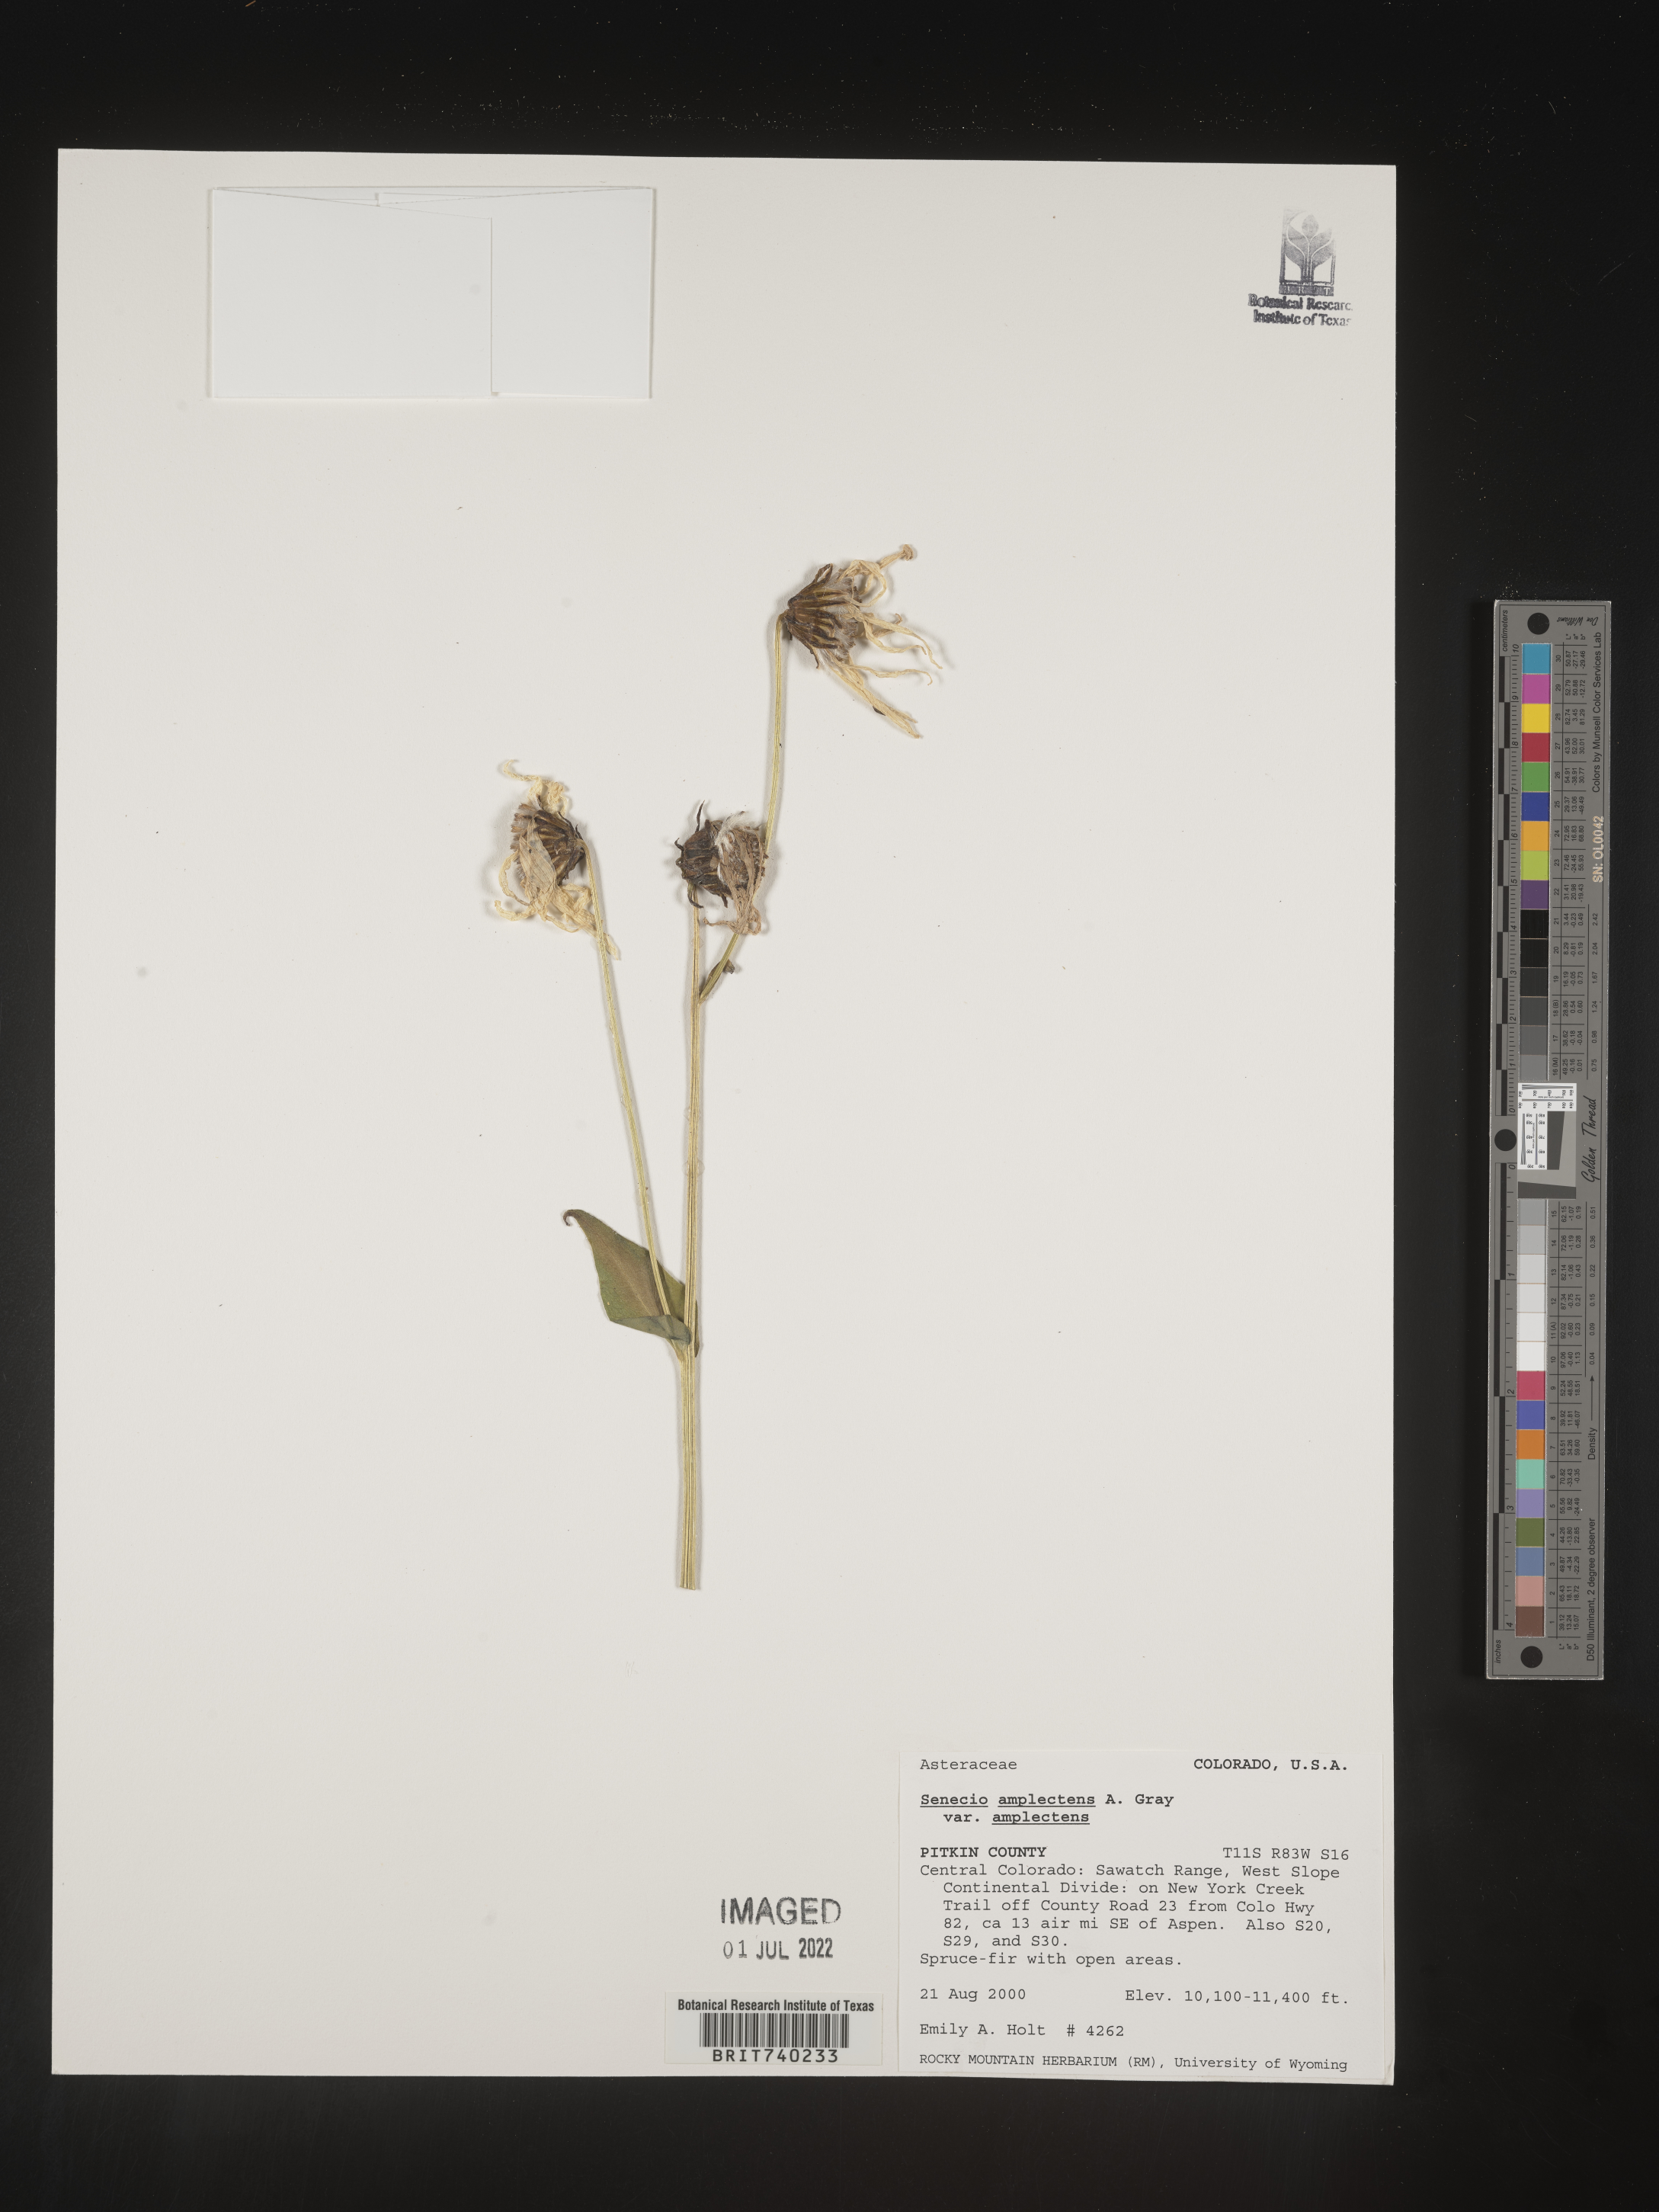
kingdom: Plantae
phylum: Tracheophyta
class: Magnoliopsida
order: Asterales
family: Asteraceae
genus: Senecio
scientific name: Senecio amplectens
